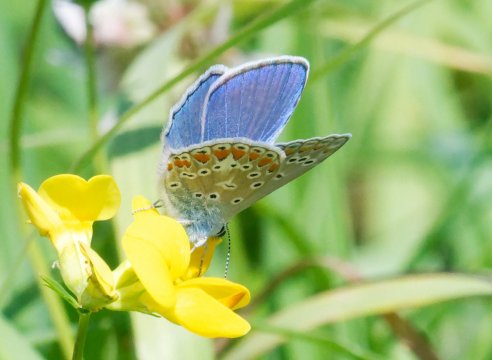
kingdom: Animalia
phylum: Arthropoda
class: Insecta
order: Lepidoptera
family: Lycaenidae
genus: Polyommatus
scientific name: Polyommatus icarus
